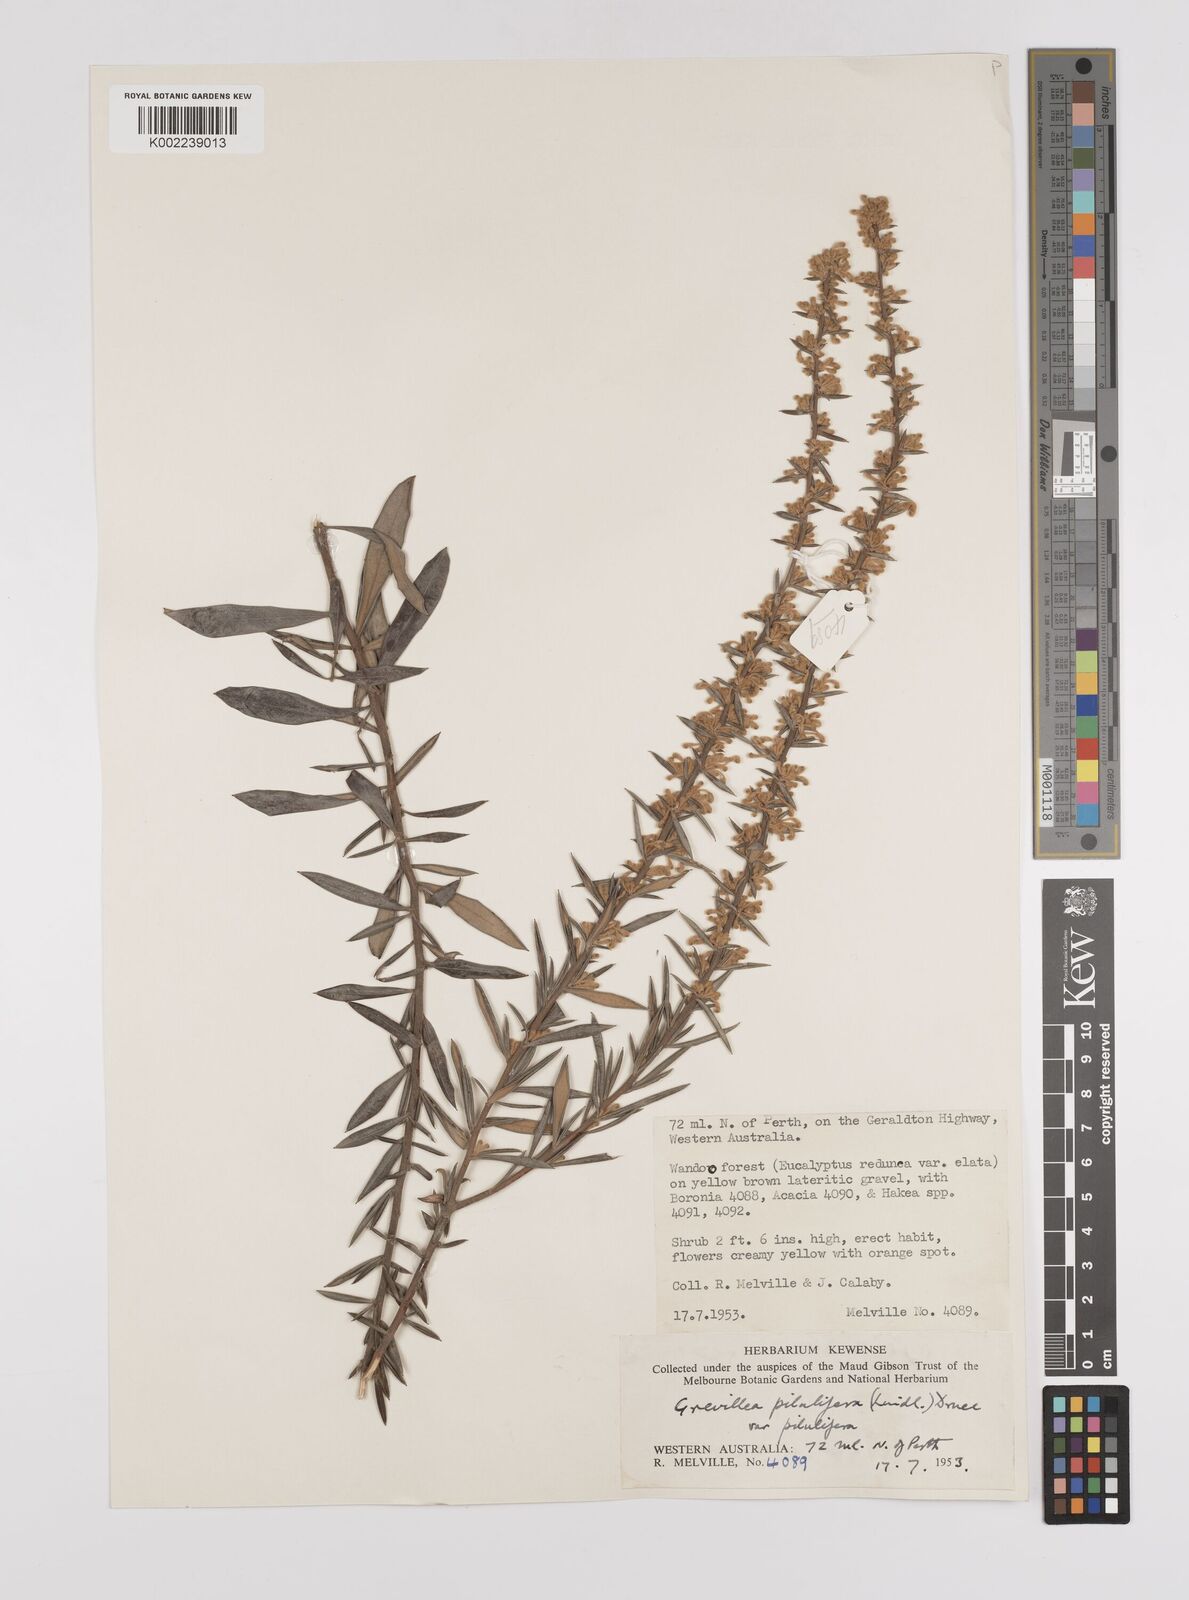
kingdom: Plantae
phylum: Tracheophyta
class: Magnoliopsida
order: Proteales
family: Proteaceae
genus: Grevillea
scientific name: Grevillea pilulifera
